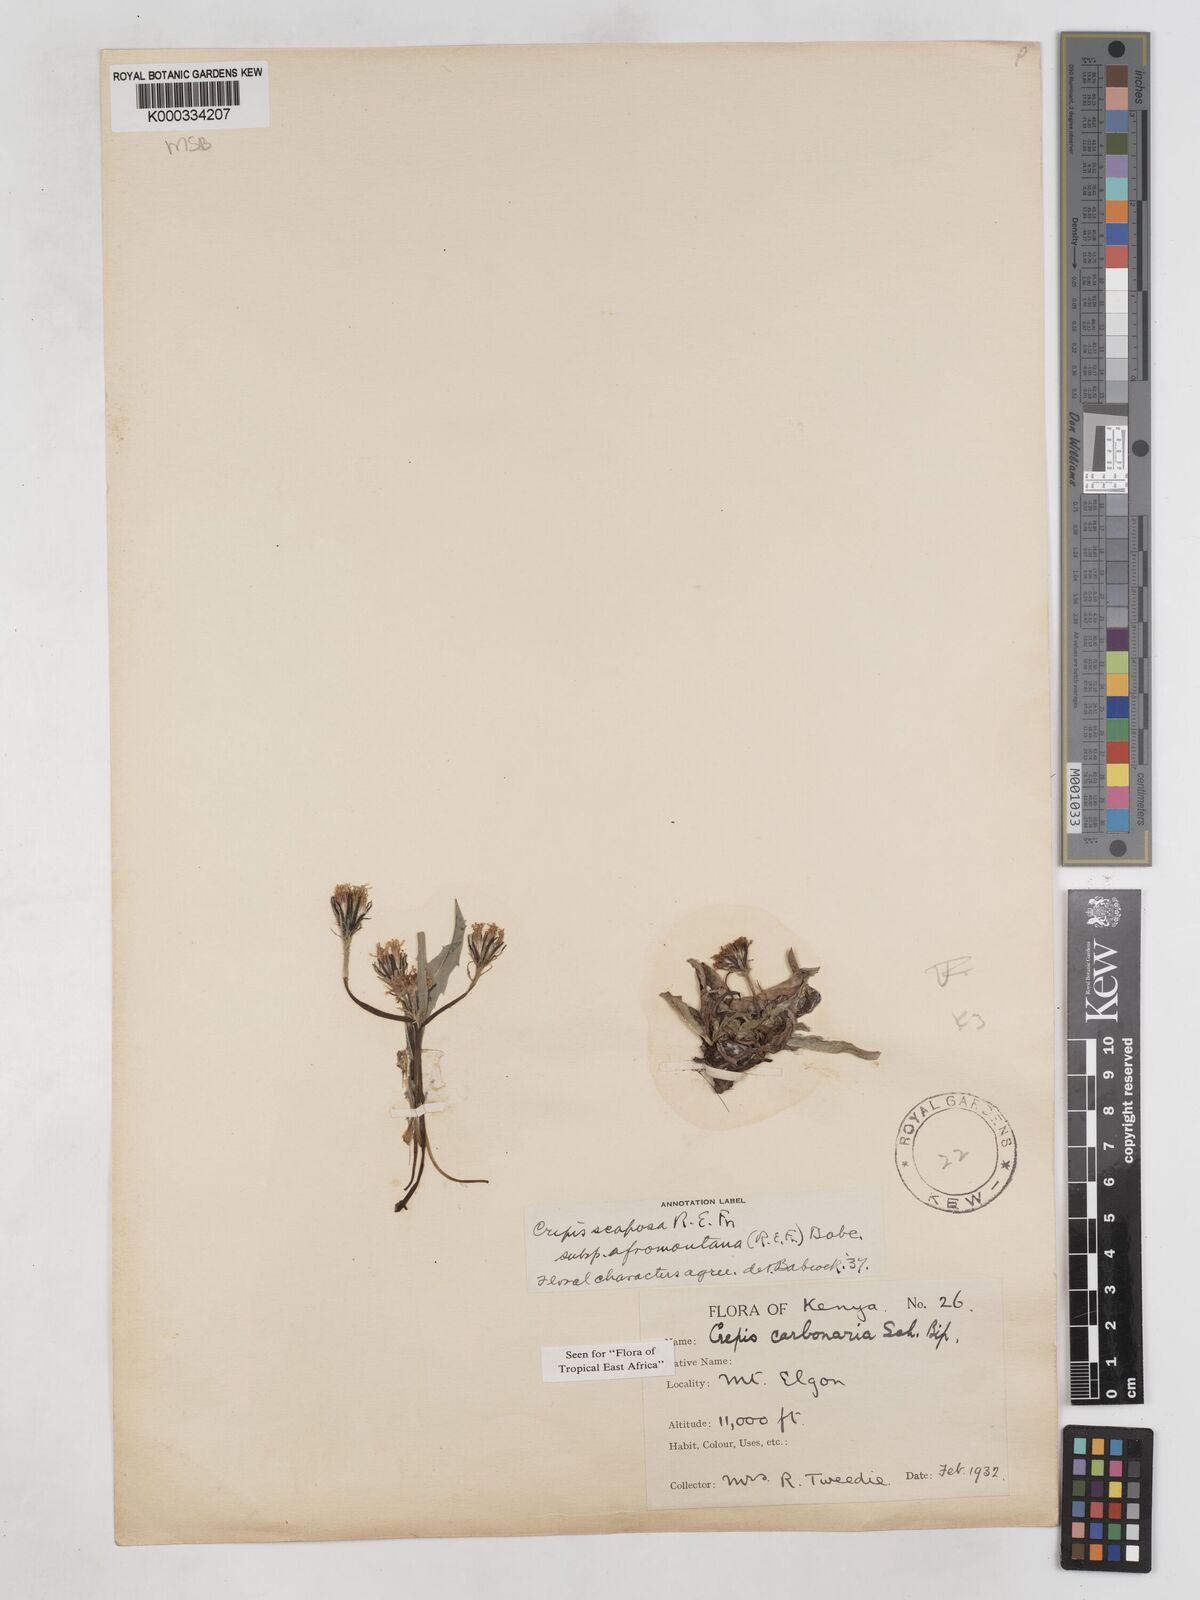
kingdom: Plantae
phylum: Tracheophyta
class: Magnoliopsida
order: Asterales
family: Asteraceae
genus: Crepis
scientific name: Crepis carbonaria
